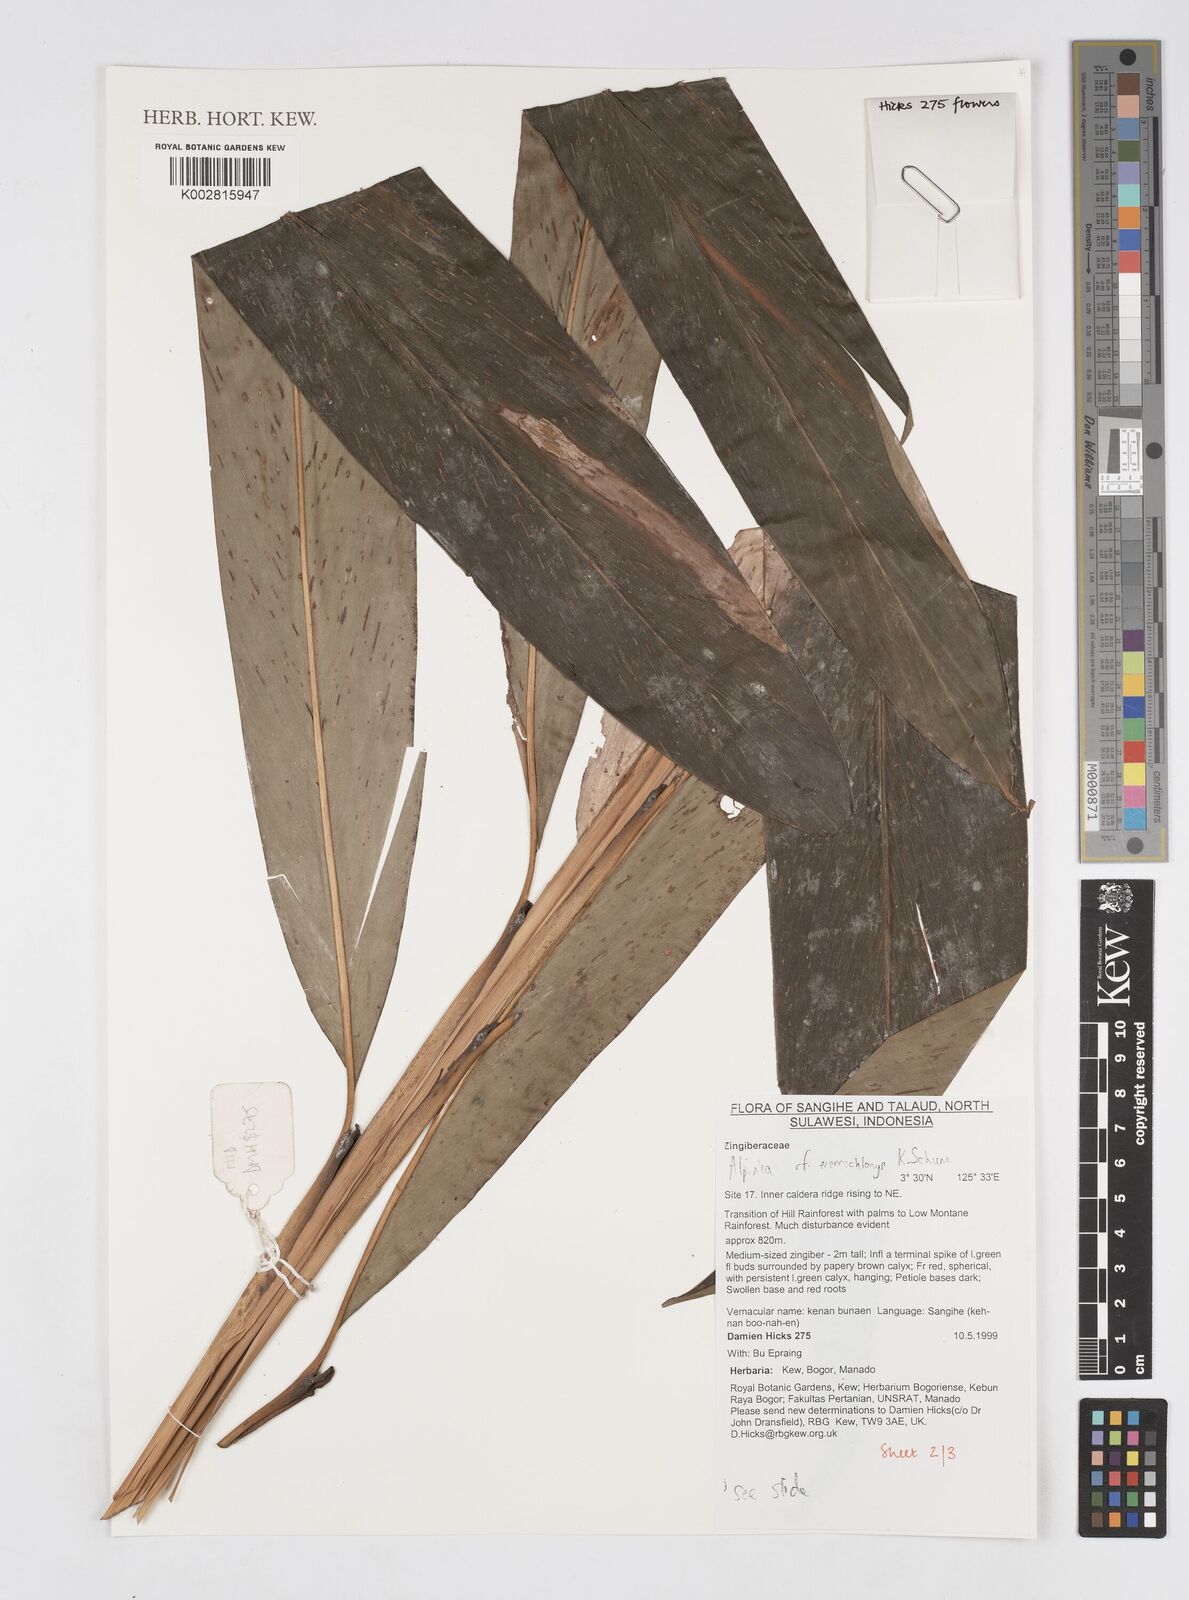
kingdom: Plantae
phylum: Tracheophyta
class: Liliopsida
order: Zingiberales
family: Zingiberaceae
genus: Alpinia
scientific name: Alpinia eremochlamys
